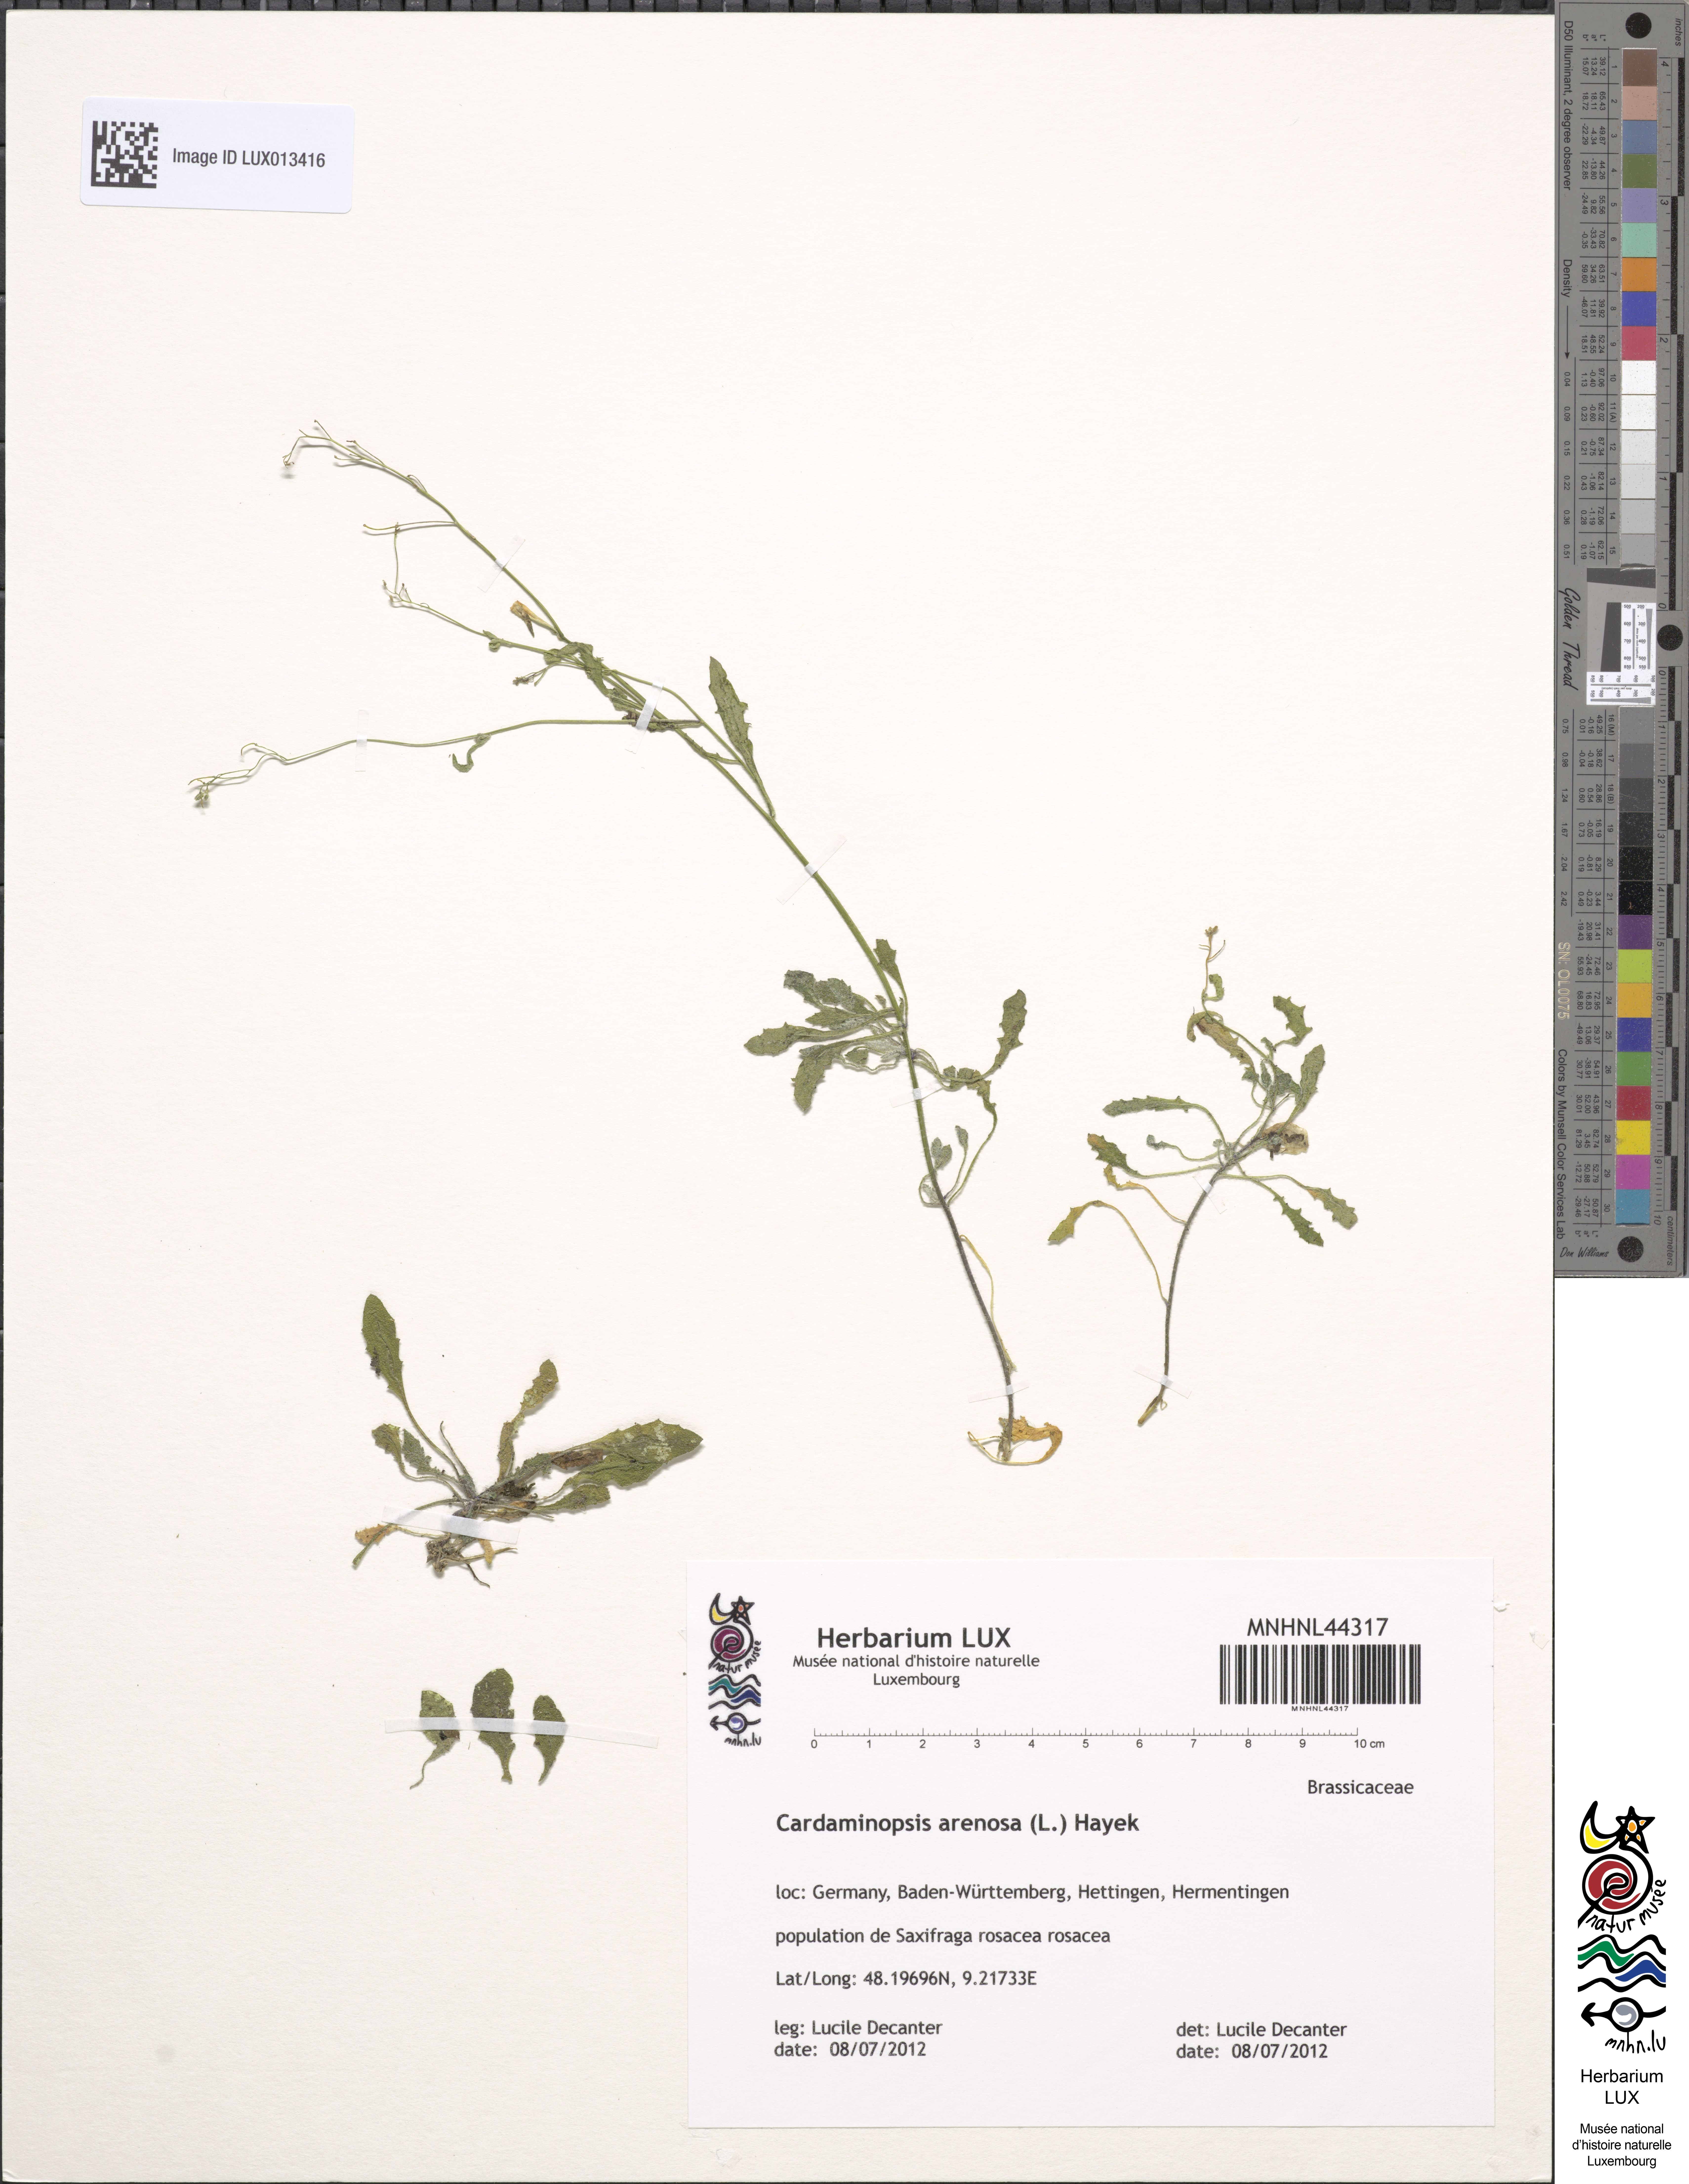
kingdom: Plantae
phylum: Tracheophyta
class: Magnoliopsida
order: Brassicales
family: Brassicaceae
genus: Arabidopsis
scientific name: Arabidopsis arenosa
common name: Sand rock-cress
